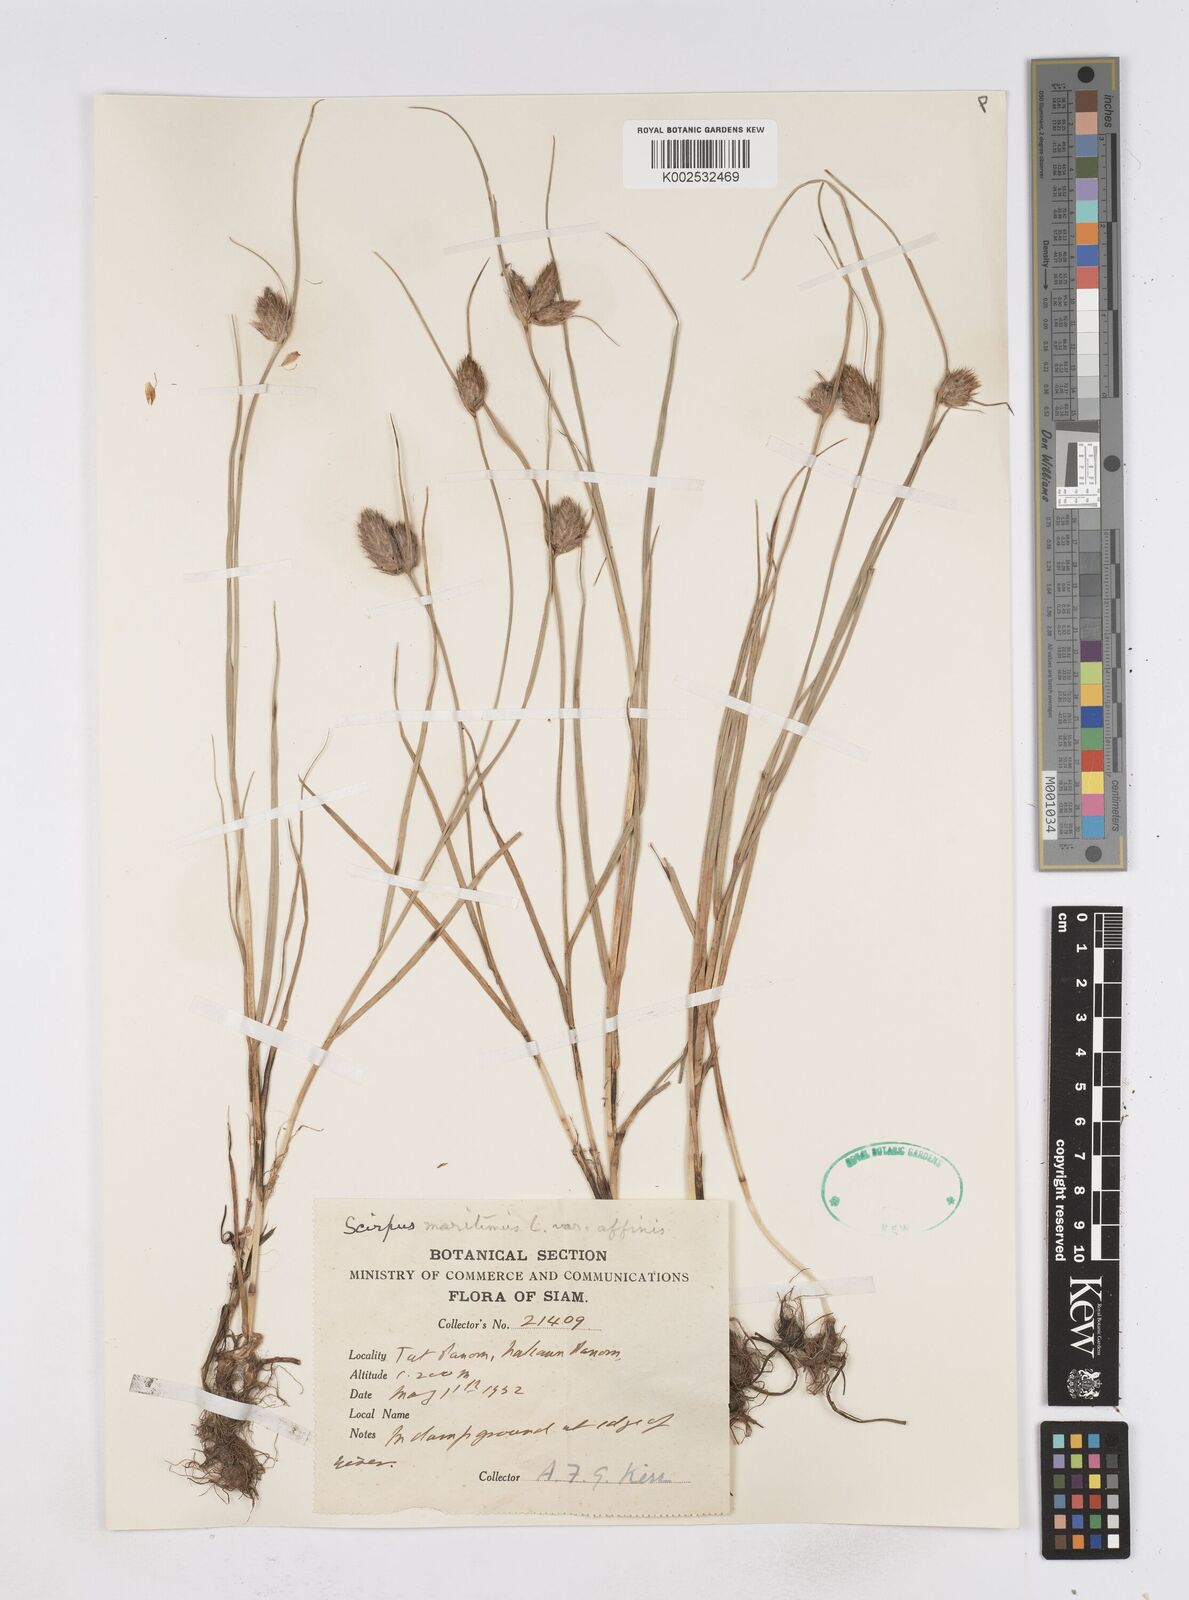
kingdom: Plantae
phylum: Tracheophyta
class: Liliopsida
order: Poales
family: Cyperaceae
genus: Bolboschoenus
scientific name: Bolboschoenus maritimus
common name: Sea club-rush
